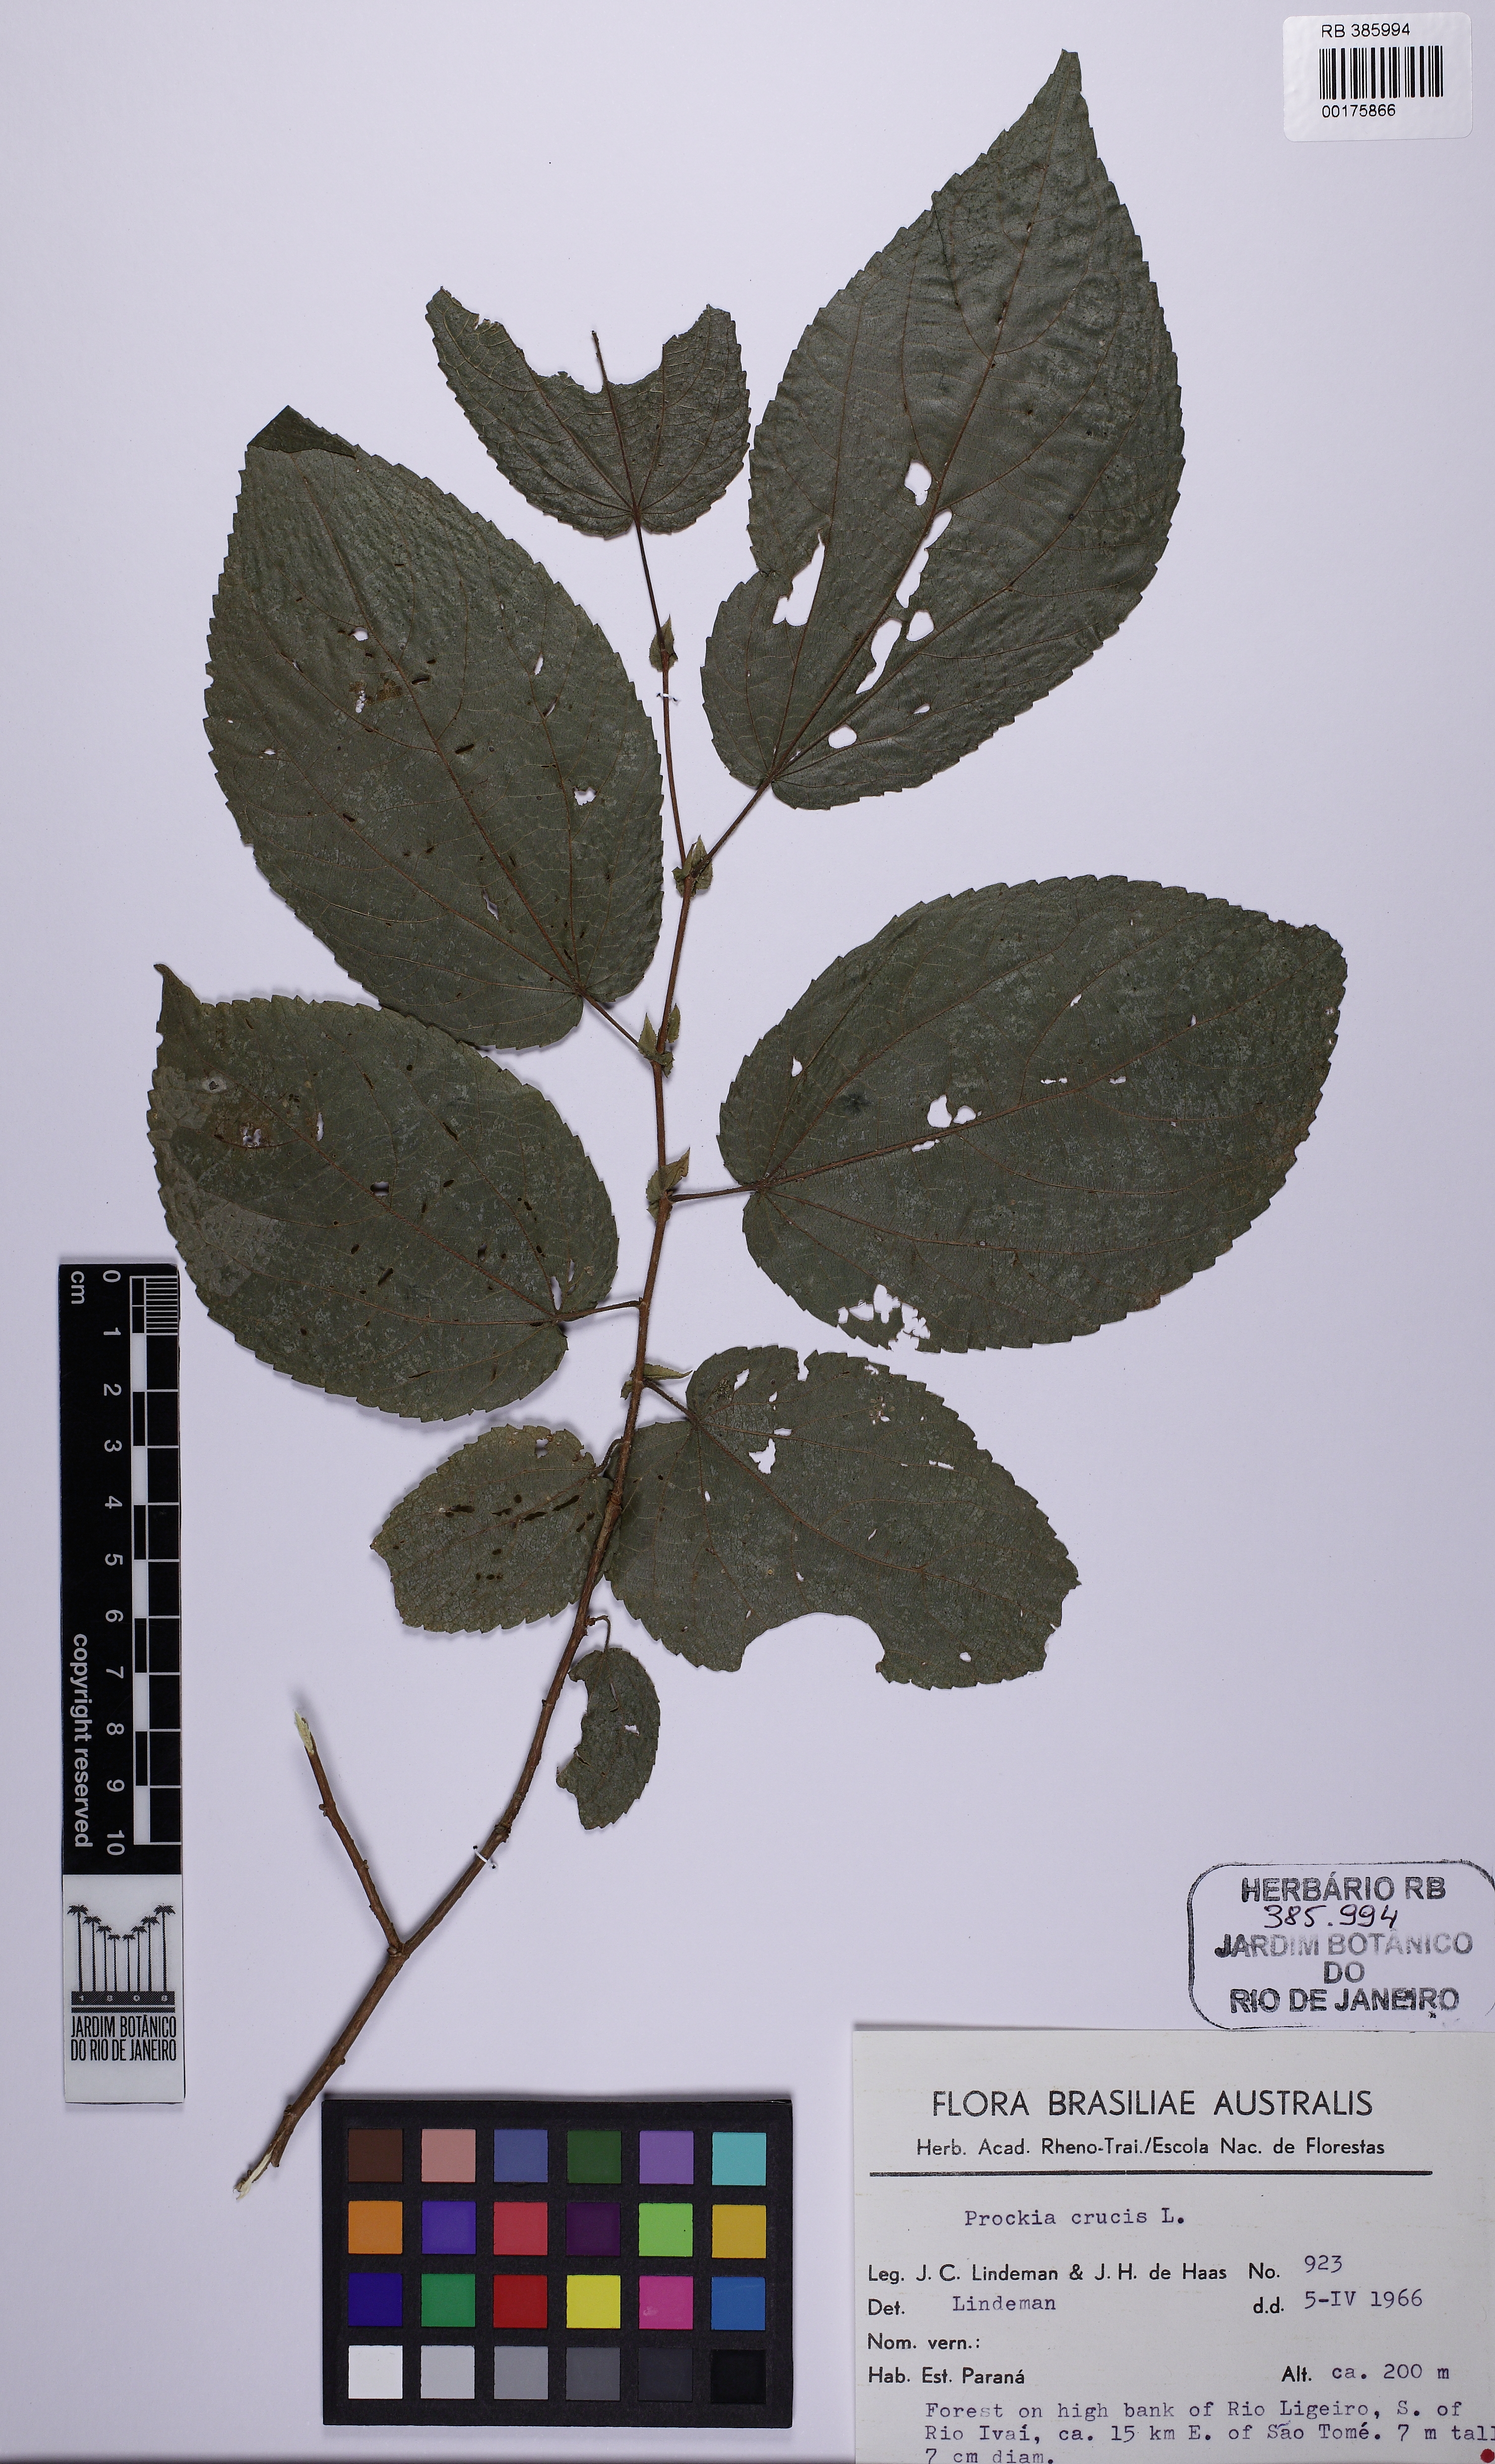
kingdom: Plantae
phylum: Tracheophyta
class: Magnoliopsida
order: Malpighiales
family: Salicaceae
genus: Prockia
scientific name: Prockia crucis
